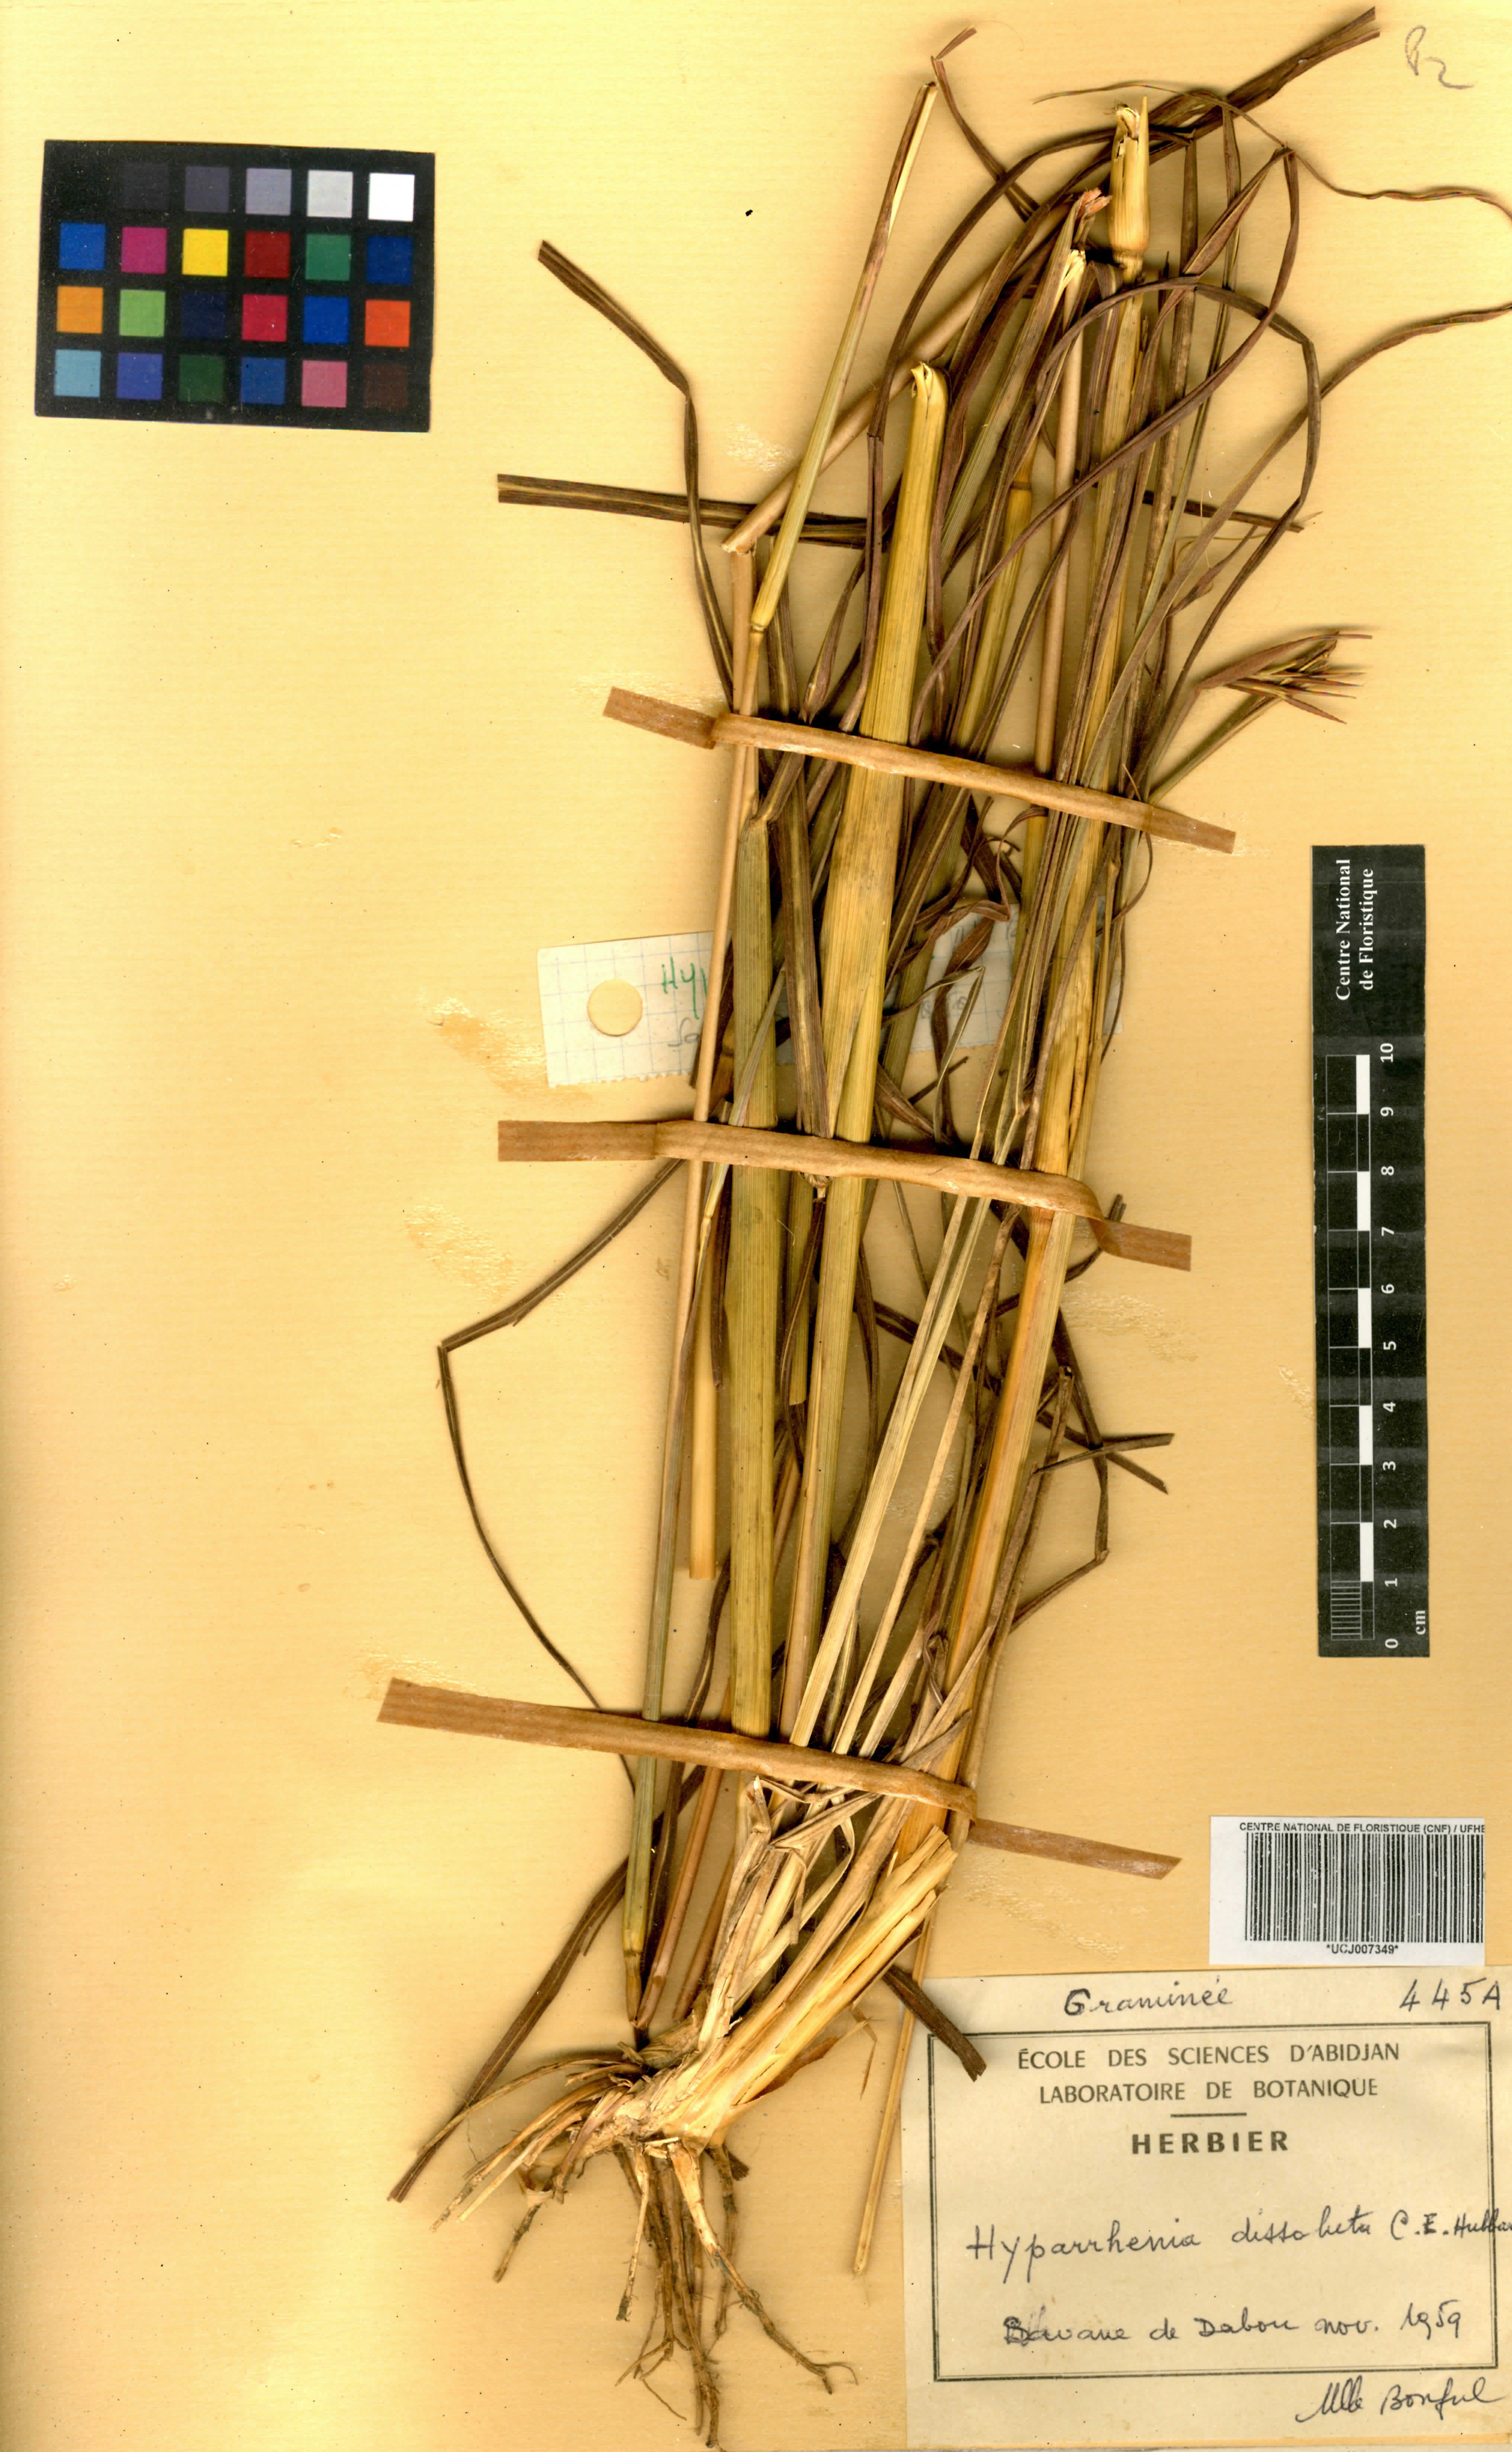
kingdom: Plantae
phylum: Tracheophyta
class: Liliopsida
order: Poales
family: Poaceae
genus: Hyperthelia
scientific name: Hyperthelia dissoluta
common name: Yellow thatching grass
